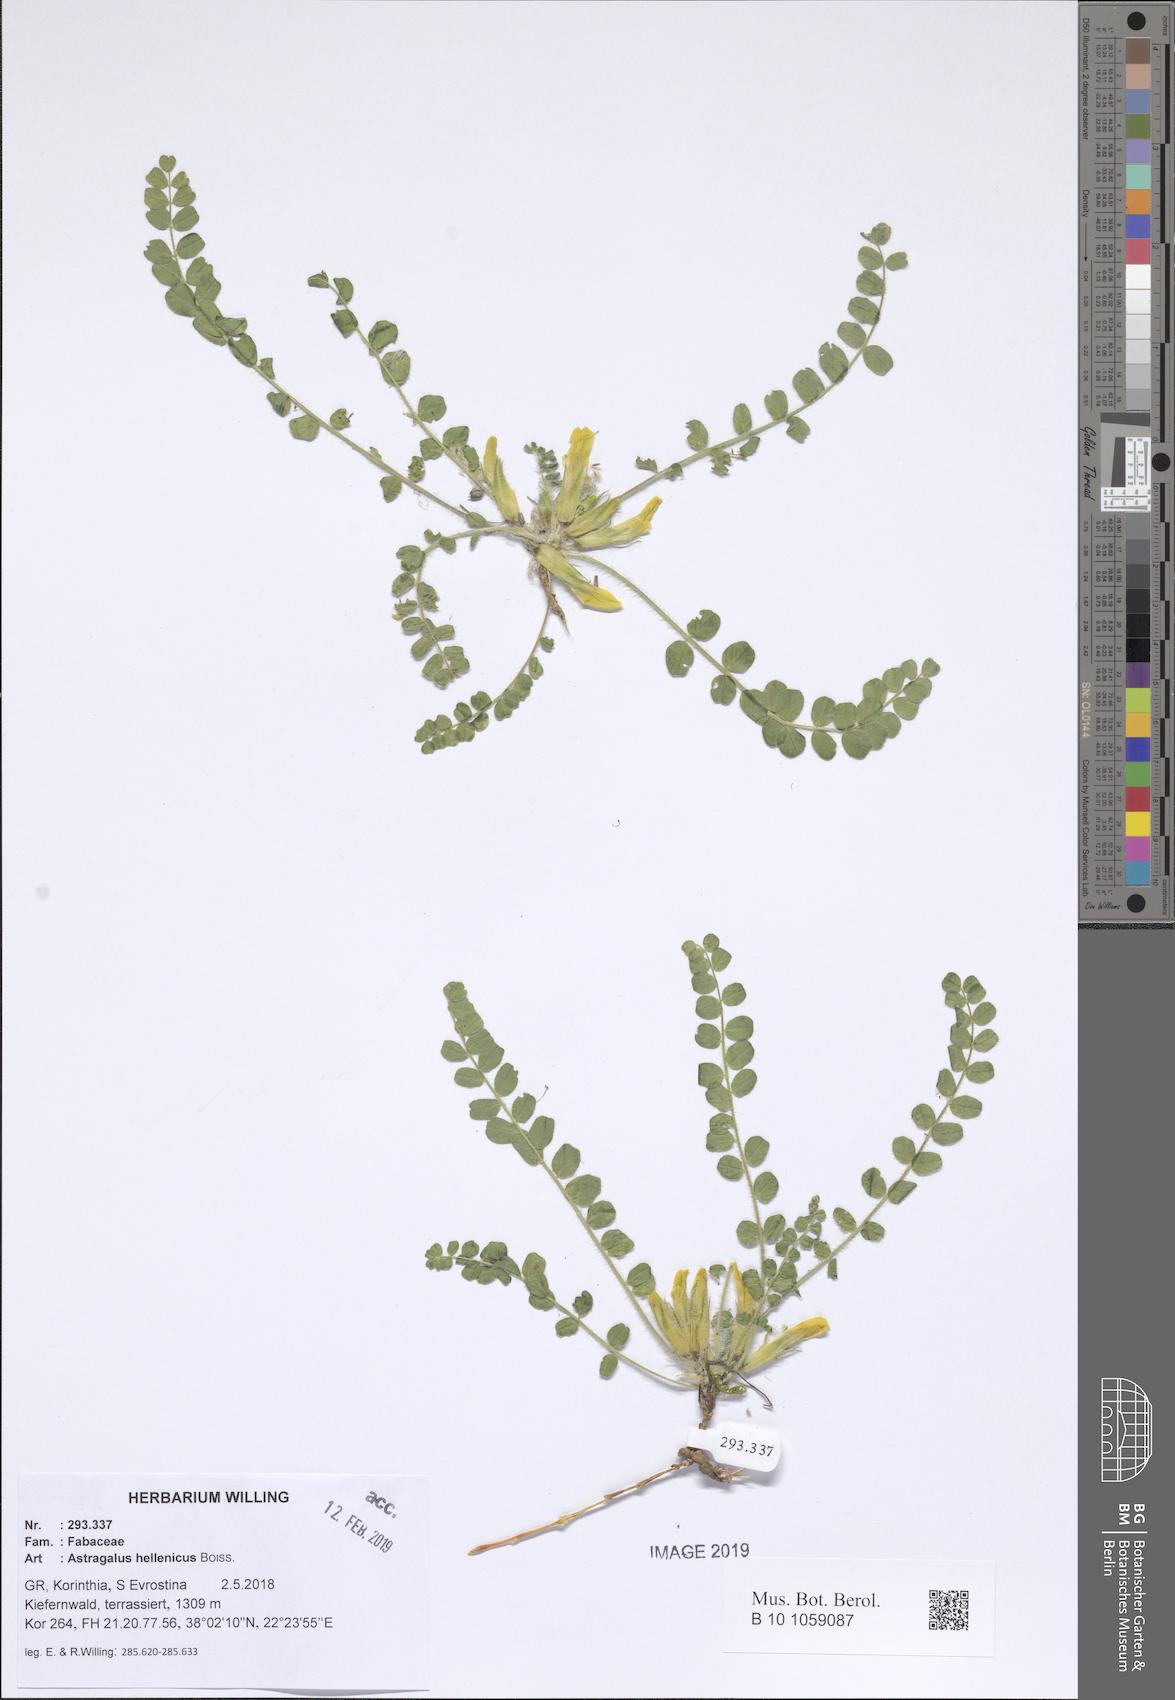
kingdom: Plantae
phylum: Tracheophyta
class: Magnoliopsida
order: Fabales
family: Fabaceae
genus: Astragalus
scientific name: Astragalus exscapus
